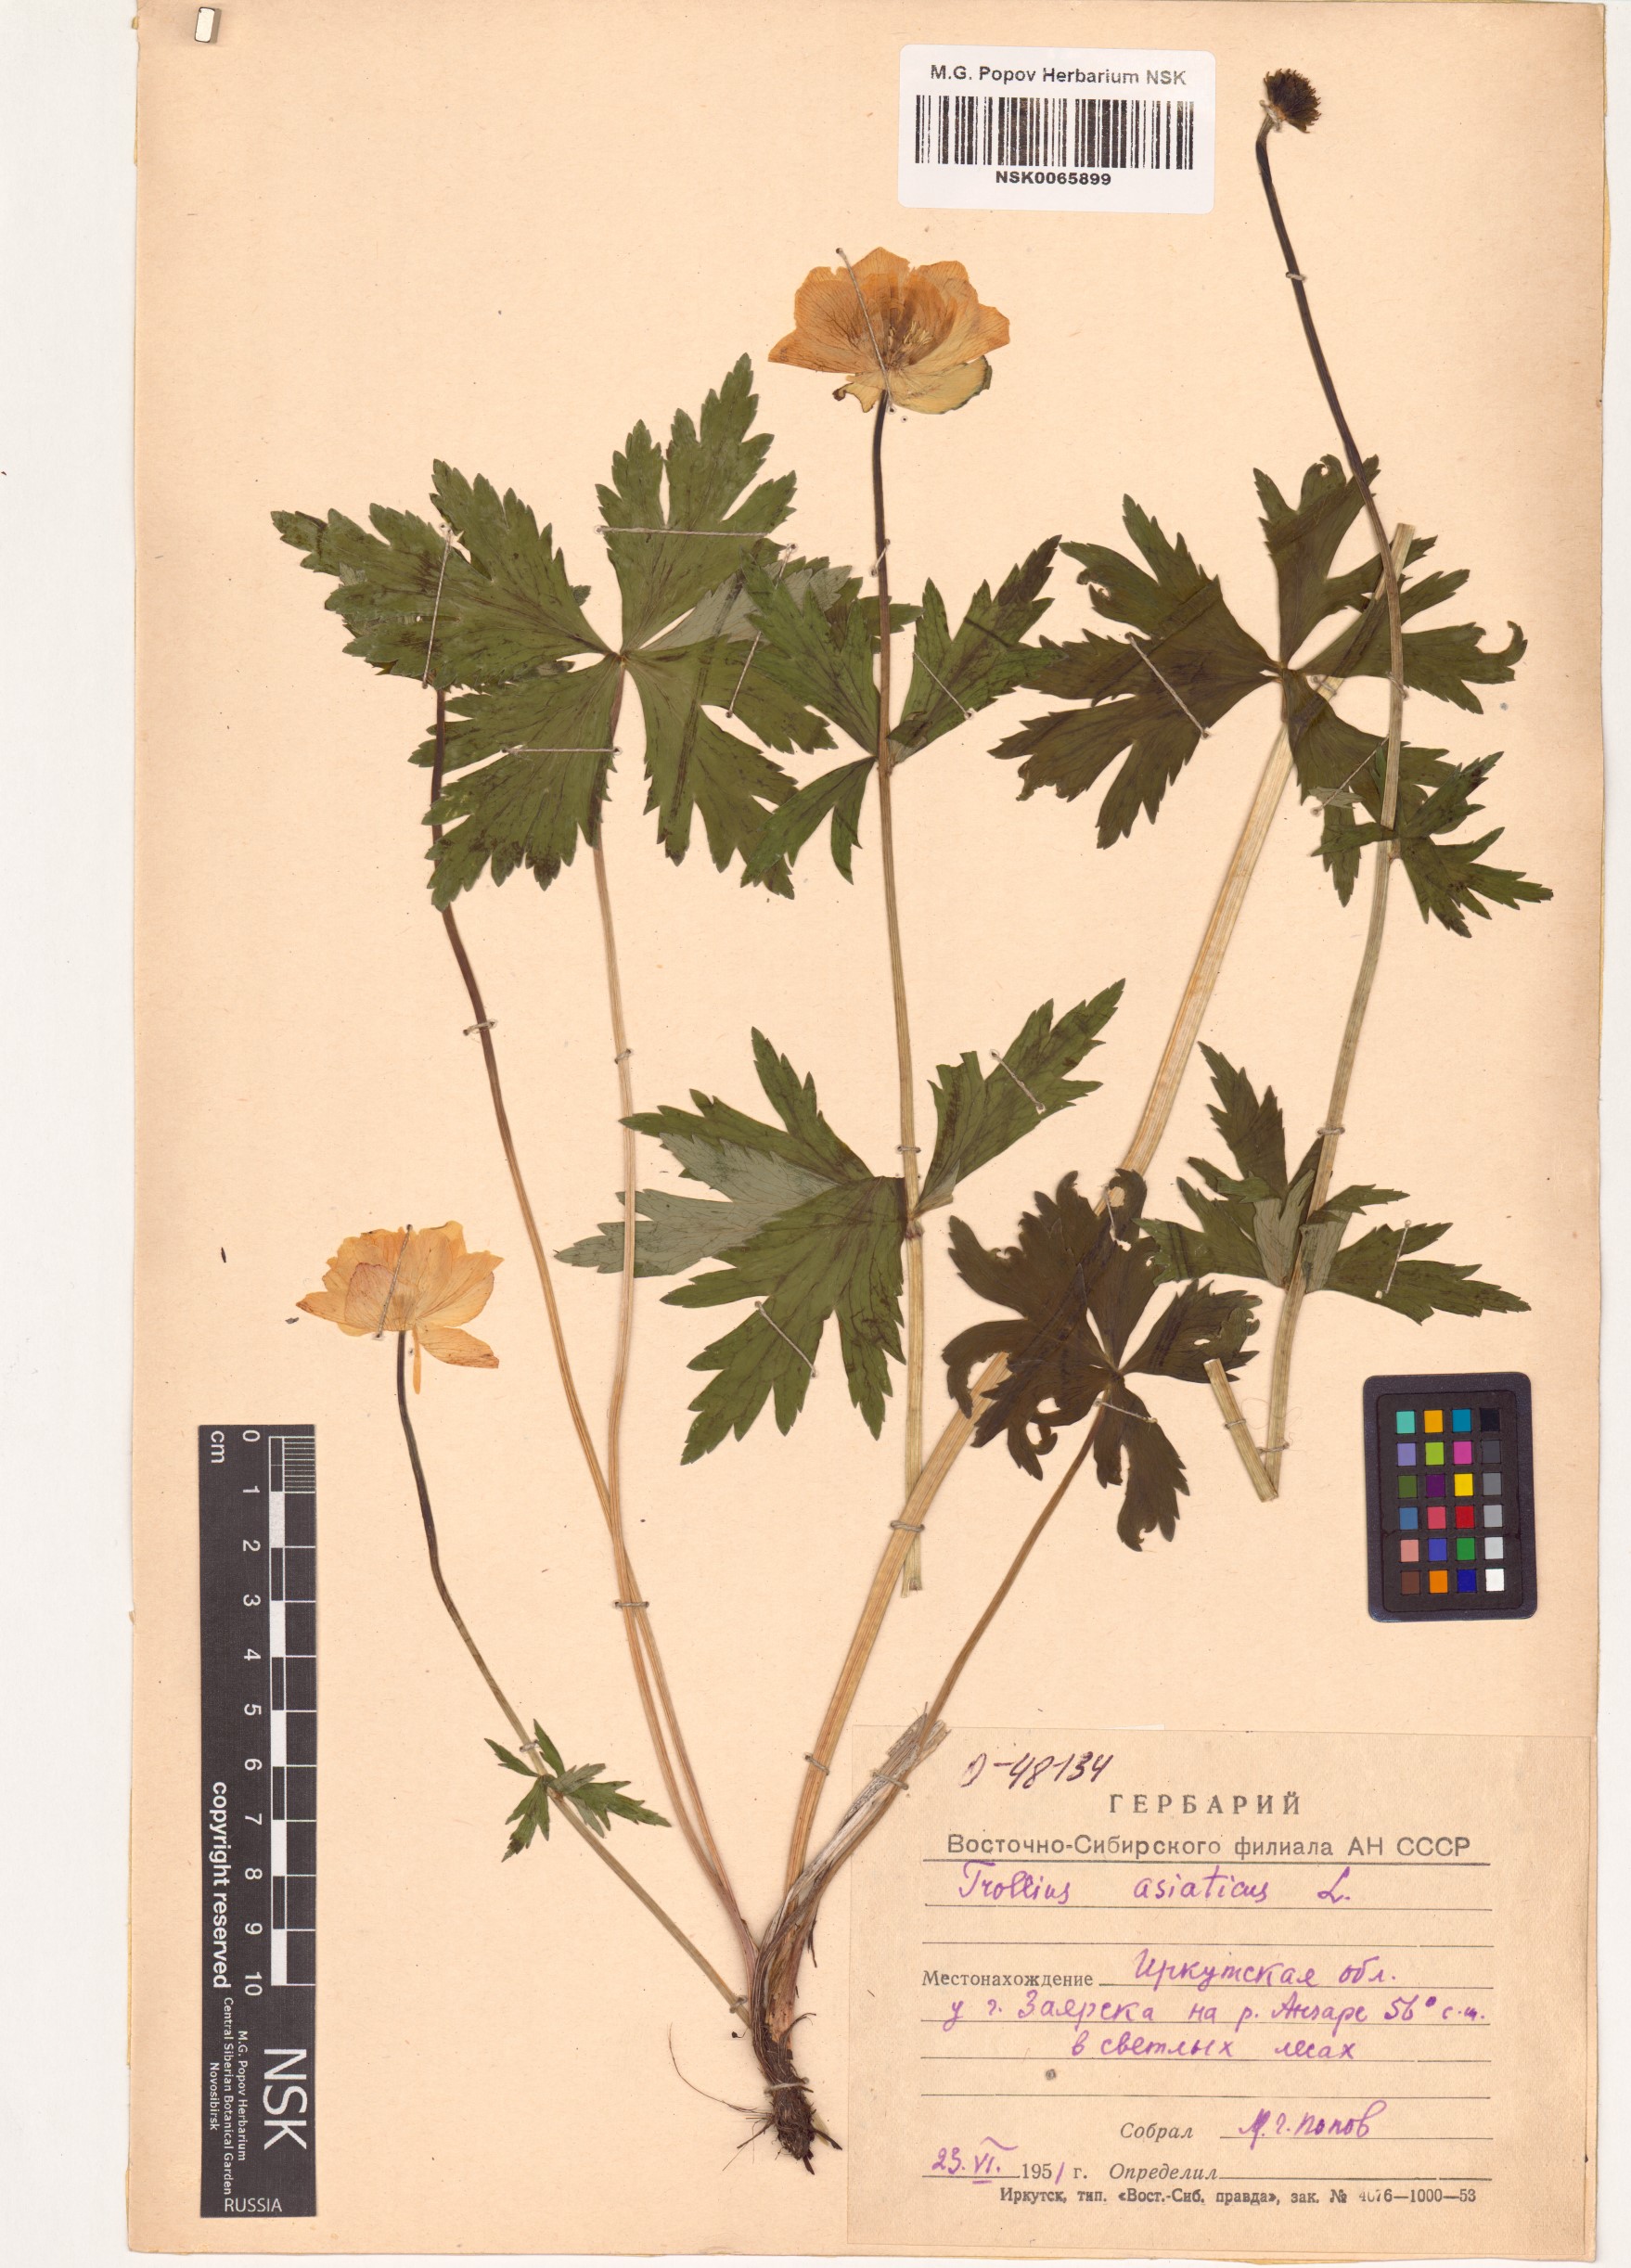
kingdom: Plantae
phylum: Tracheophyta
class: Magnoliopsida
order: Ranunculales
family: Ranunculaceae
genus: Trollius
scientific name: Trollius asiaticus
